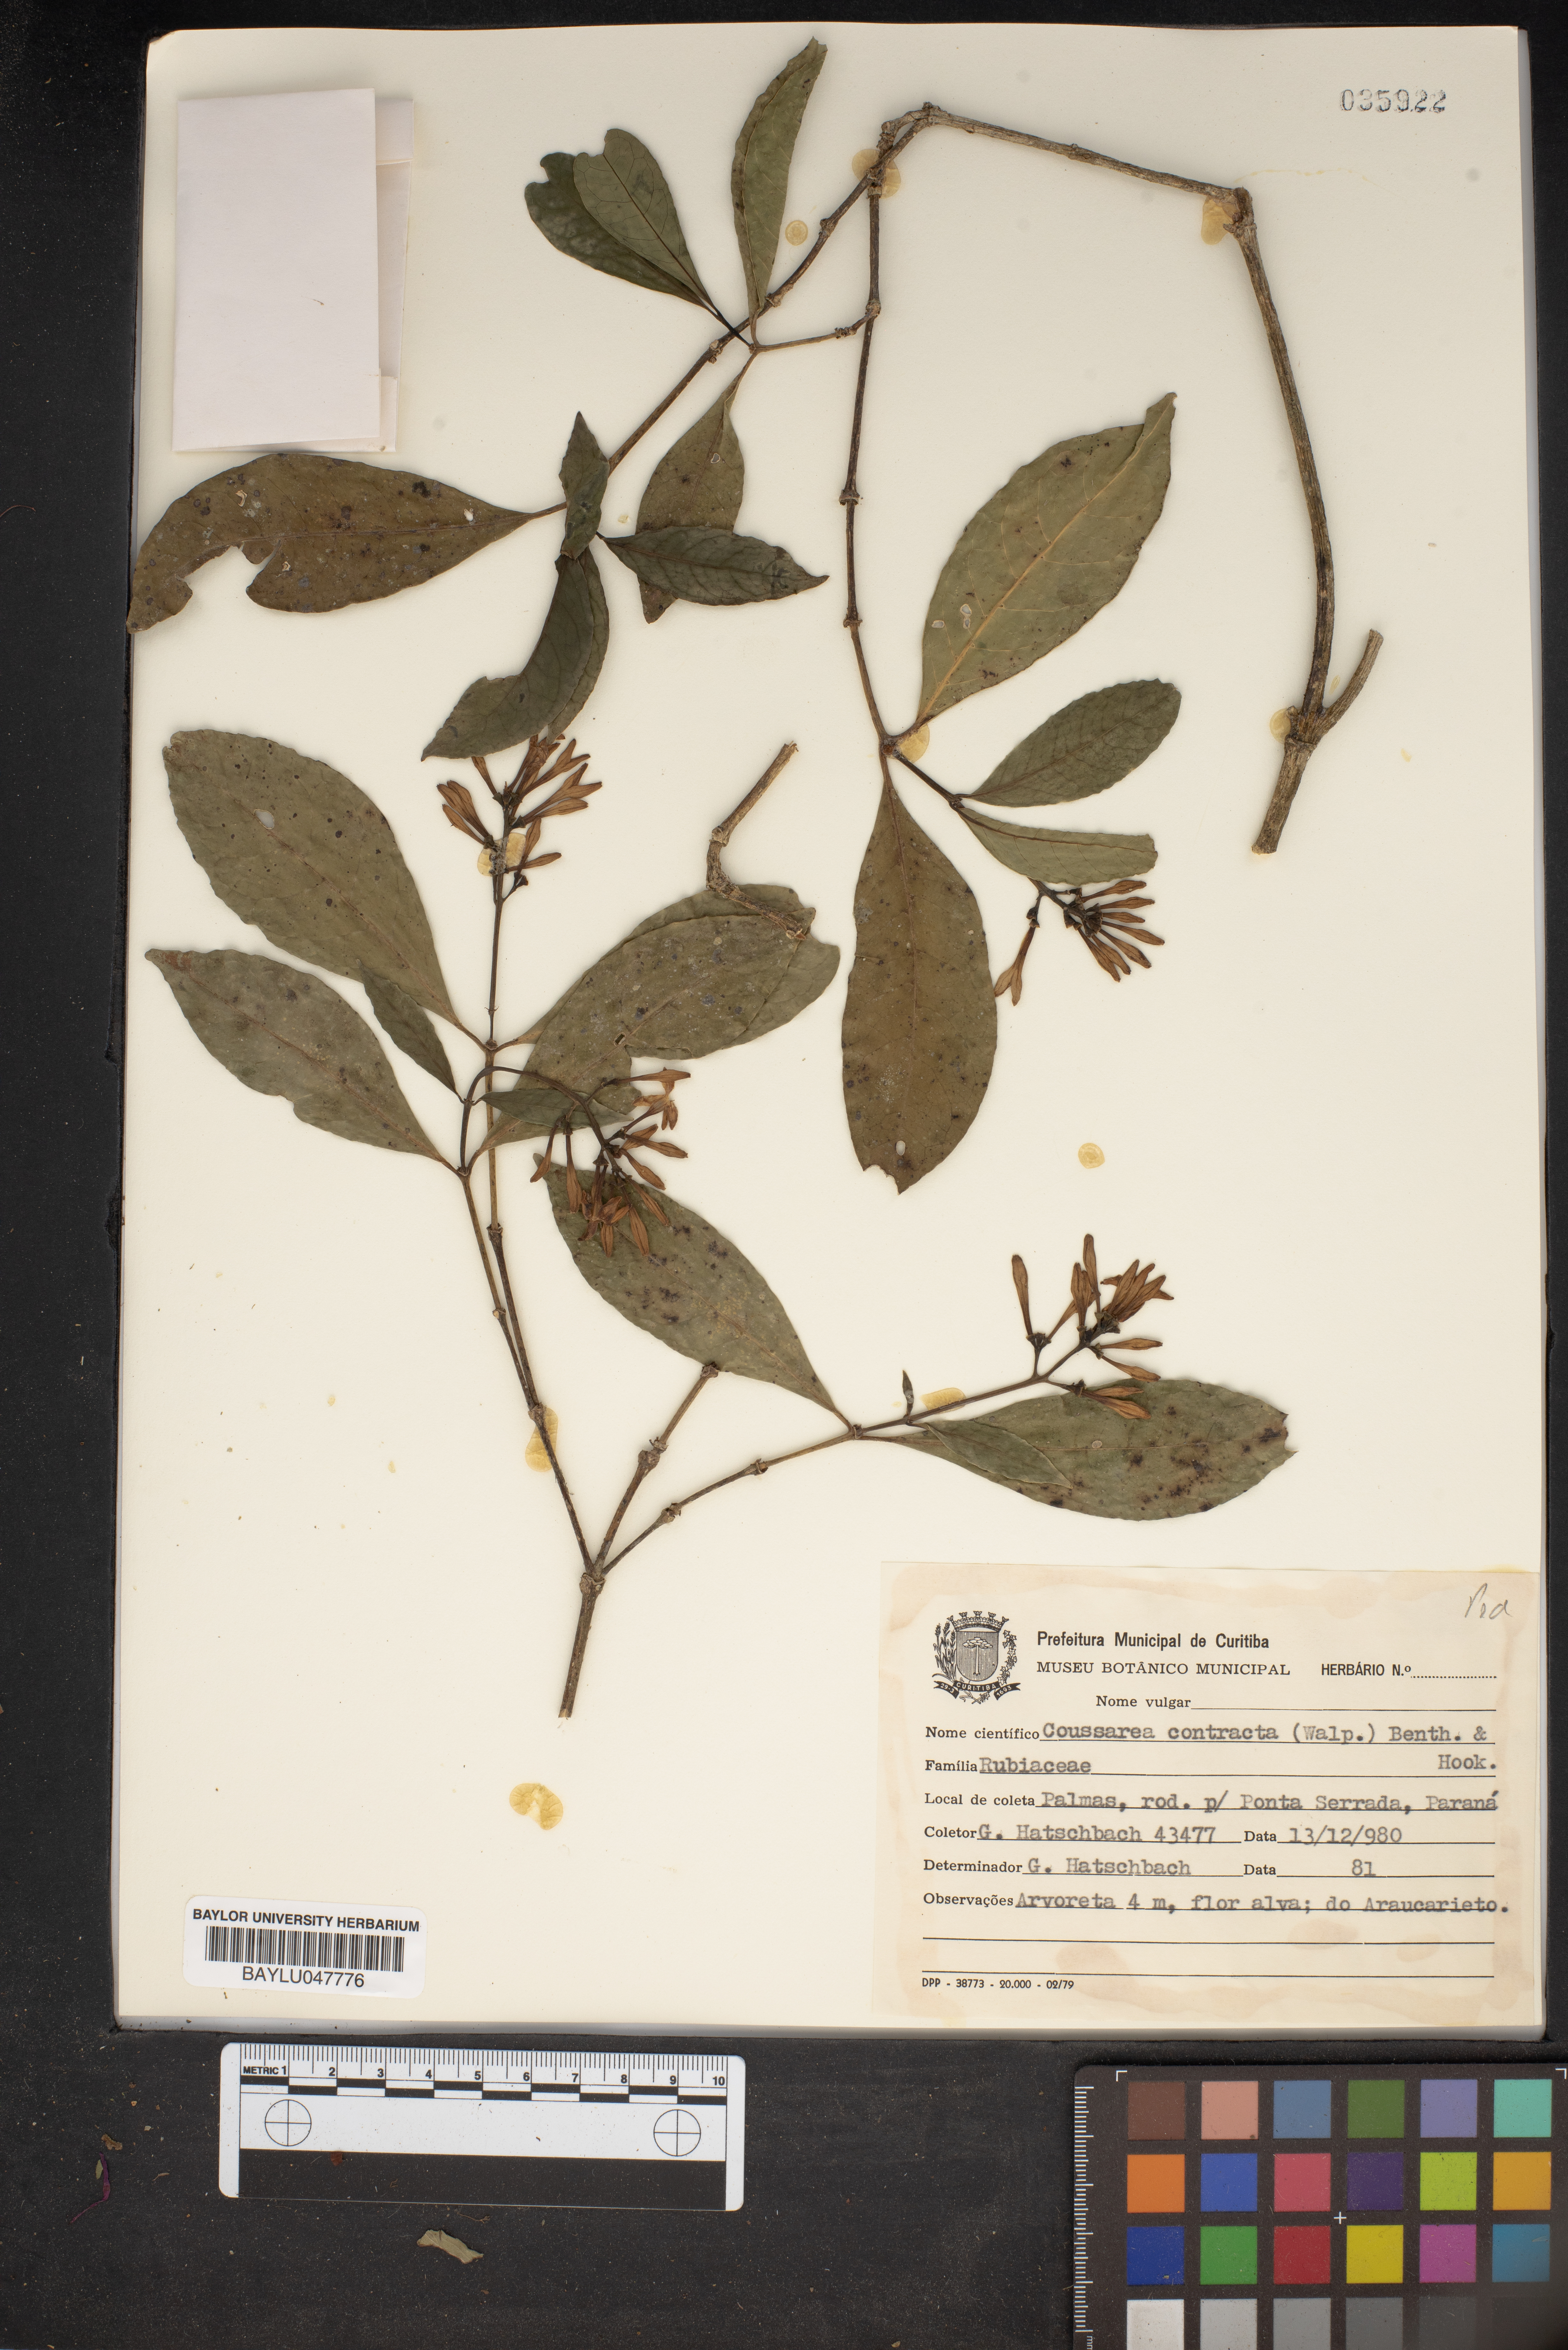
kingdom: Plantae
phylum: Tracheophyta
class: Magnoliopsida
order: Gentianales
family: Rubiaceae
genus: Coussarea
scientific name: Coussarea contracta
